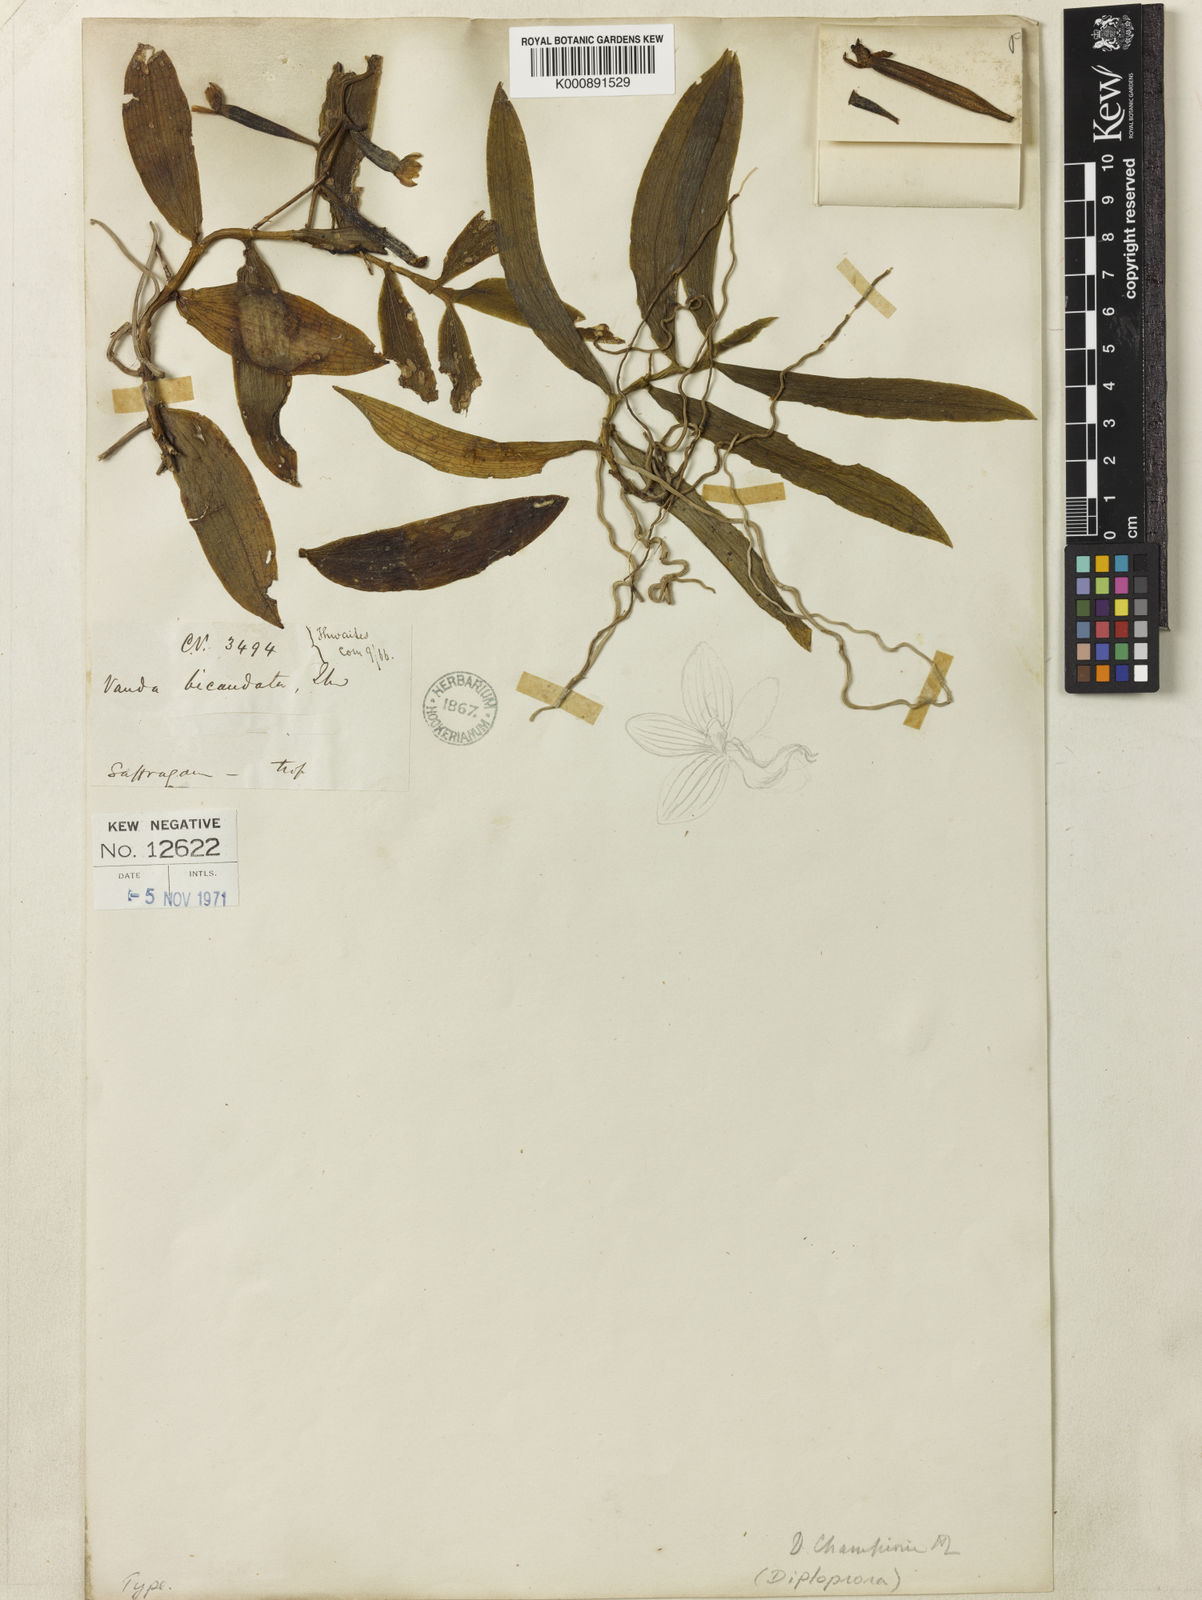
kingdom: Plantae
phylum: Tracheophyta
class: Liliopsida
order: Asparagales
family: Orchidaceae
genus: Diploprora
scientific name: Diploprora championii
